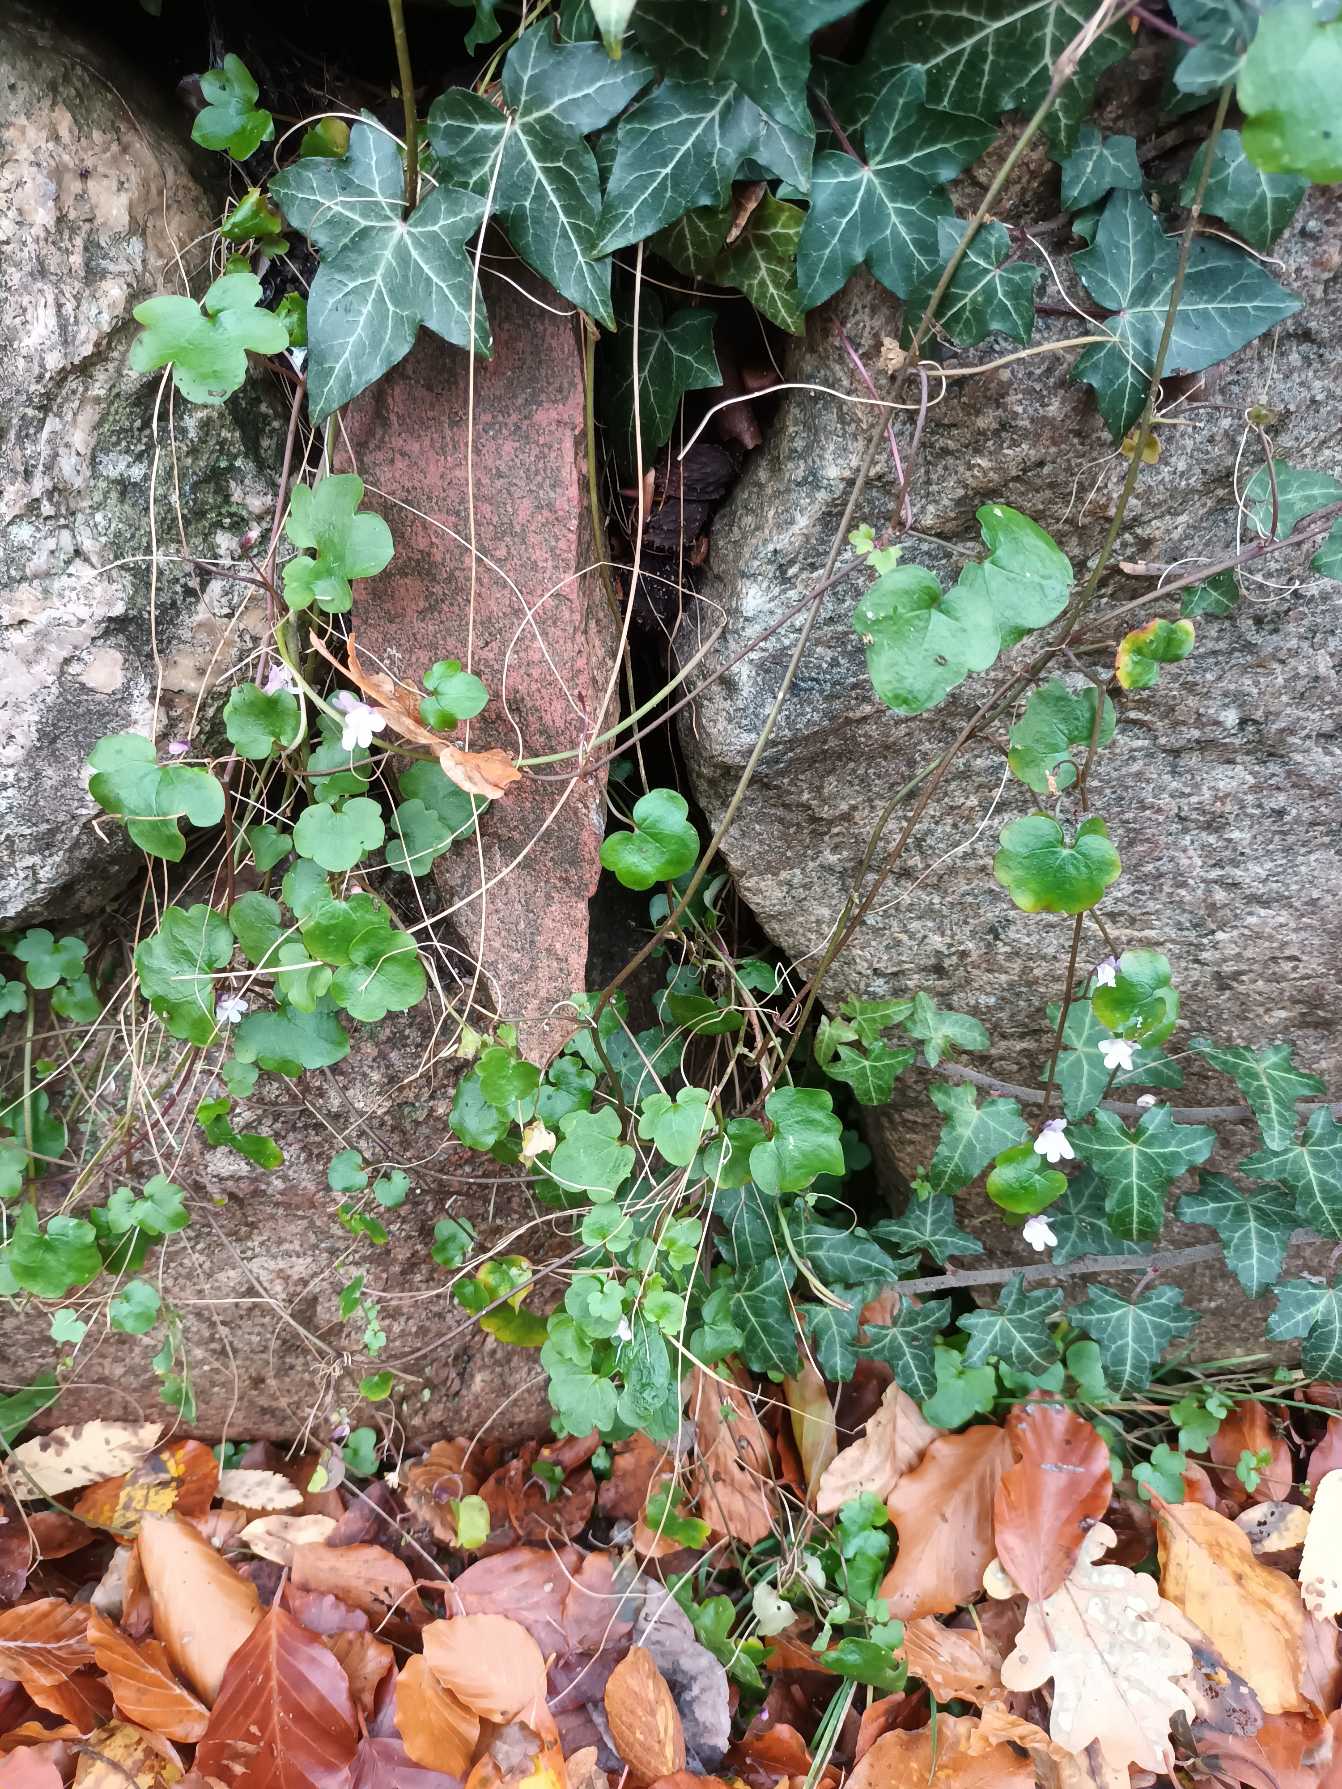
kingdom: Plantae
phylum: Tracheophyta
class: Magnoliopsida
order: Lamiales
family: Plantaginaceae
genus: Cymbalaria
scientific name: Cymbalaria muralis
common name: Vedbend-torskemund
